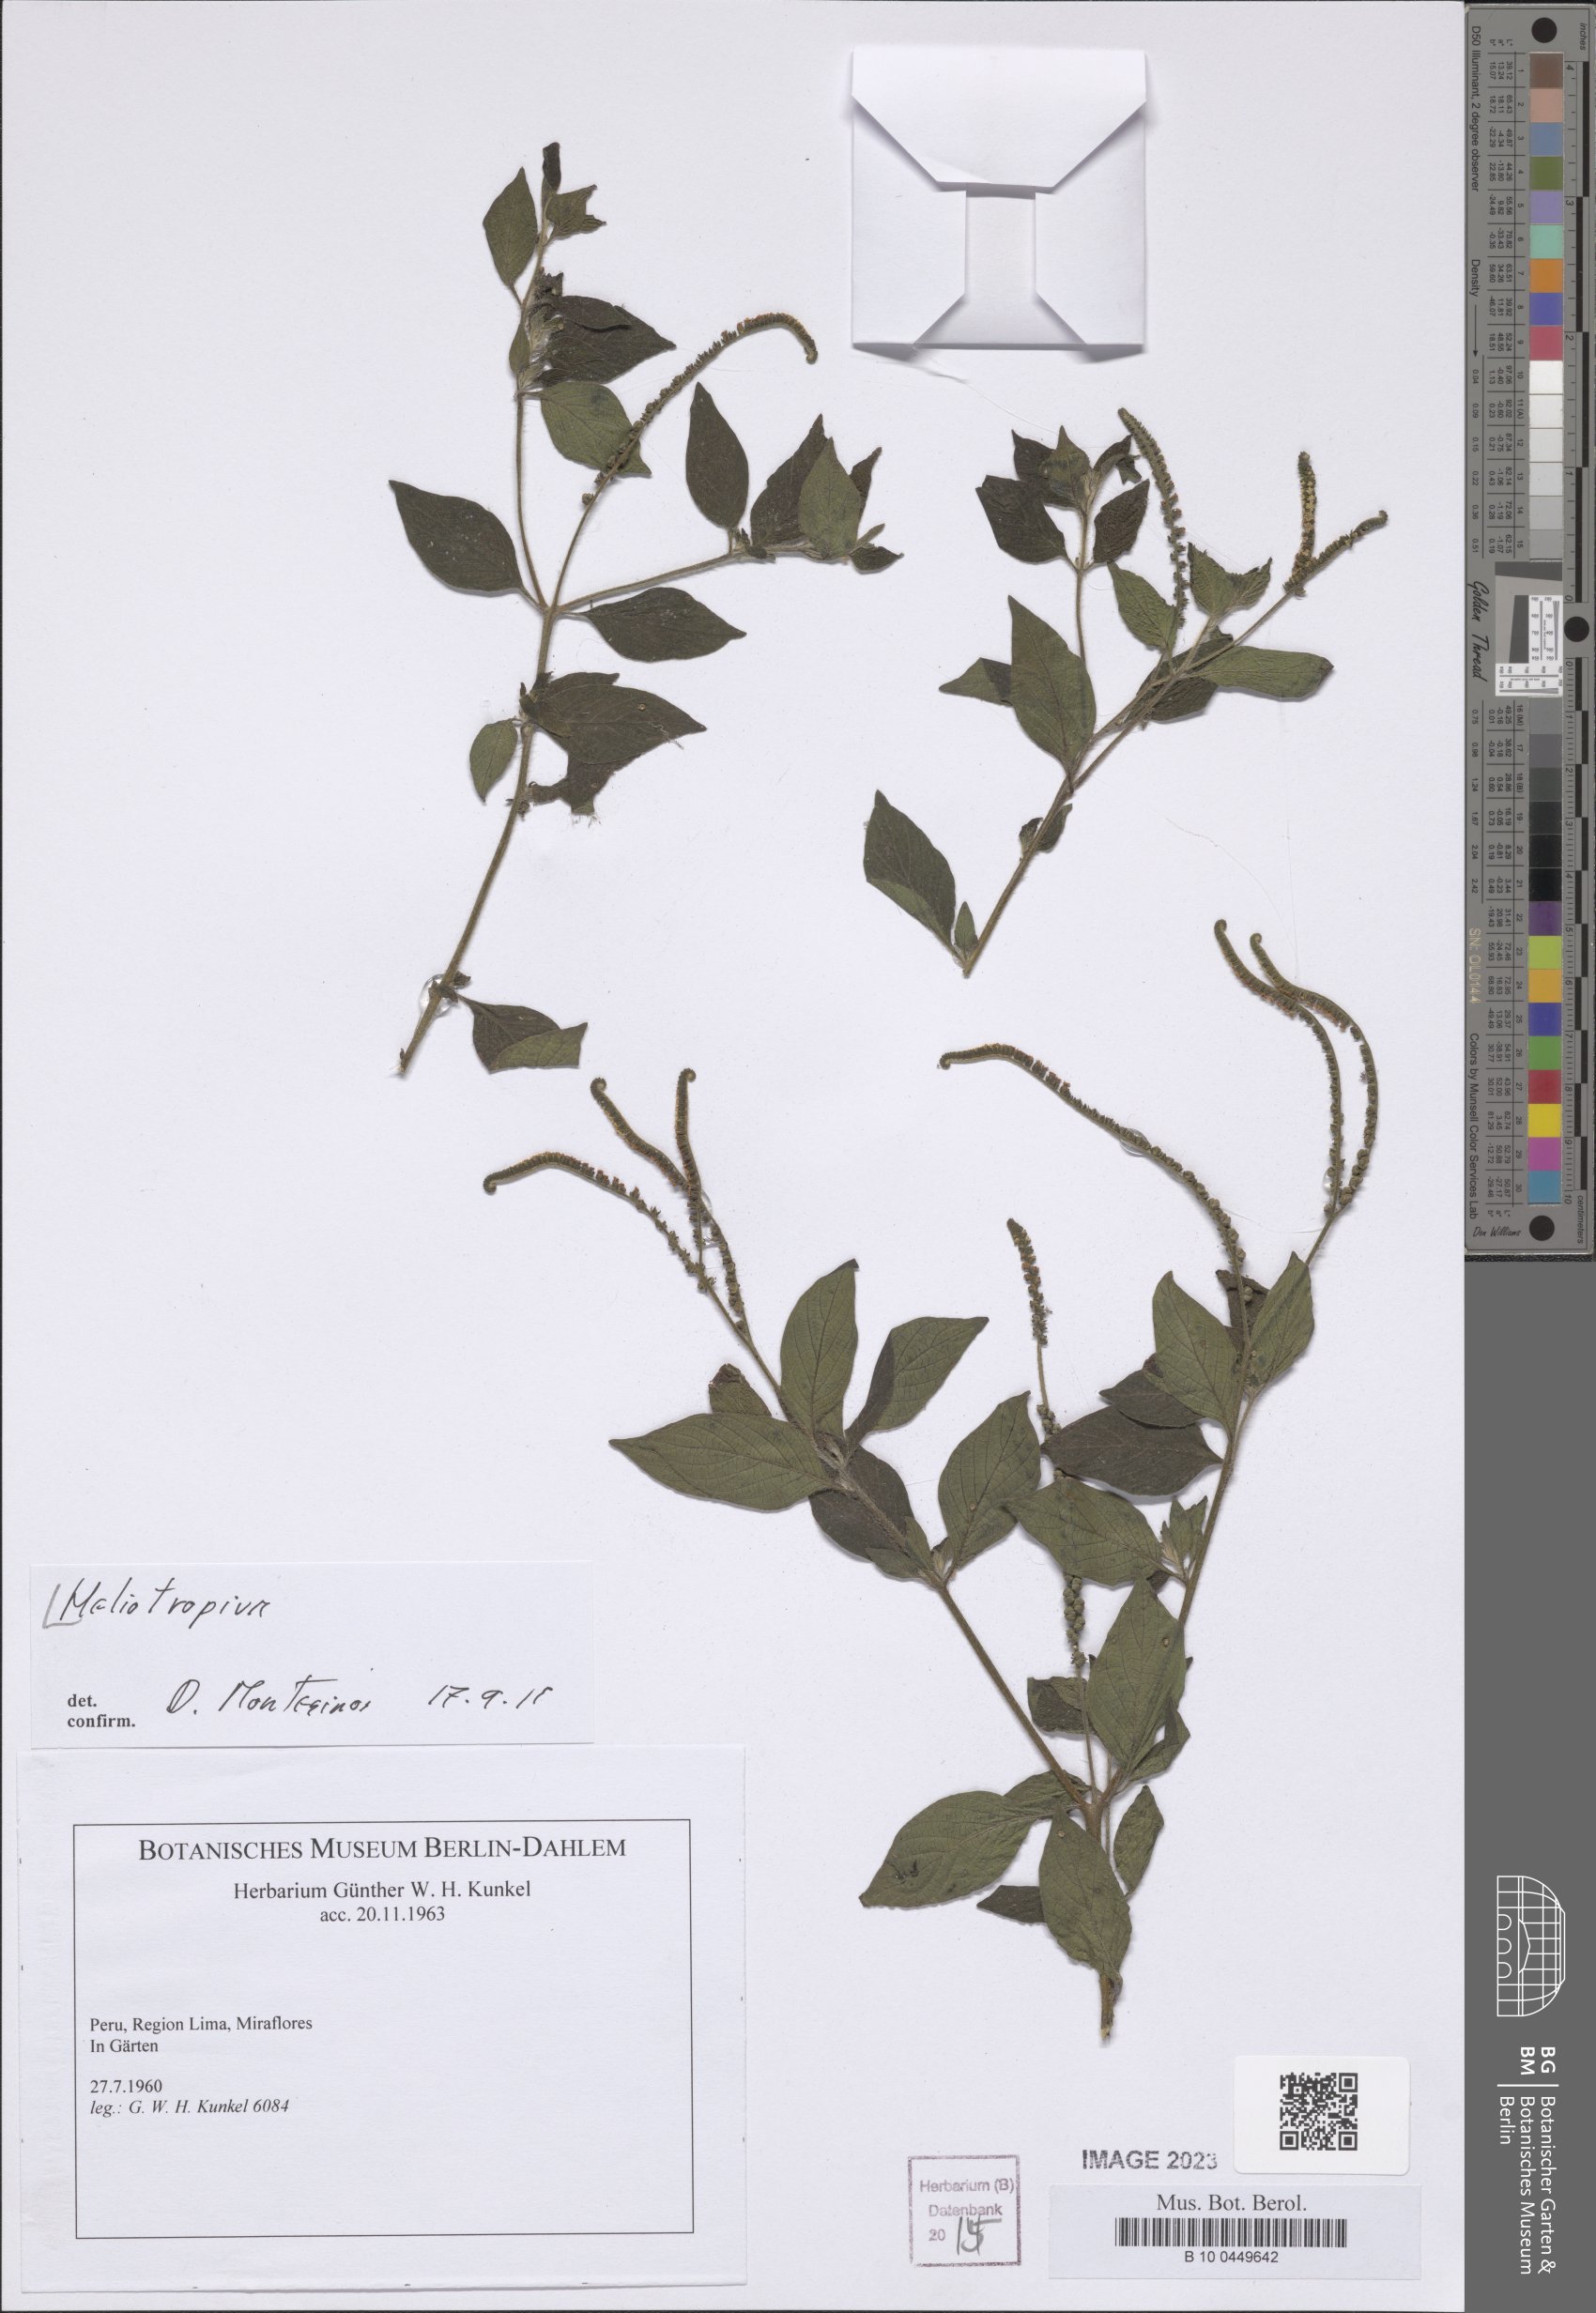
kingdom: Plantae
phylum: Tracheophyta
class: Magnoliopsida
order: Boraginales
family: Heliotropiaceae
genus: Heliotropium
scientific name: Heliotropium
